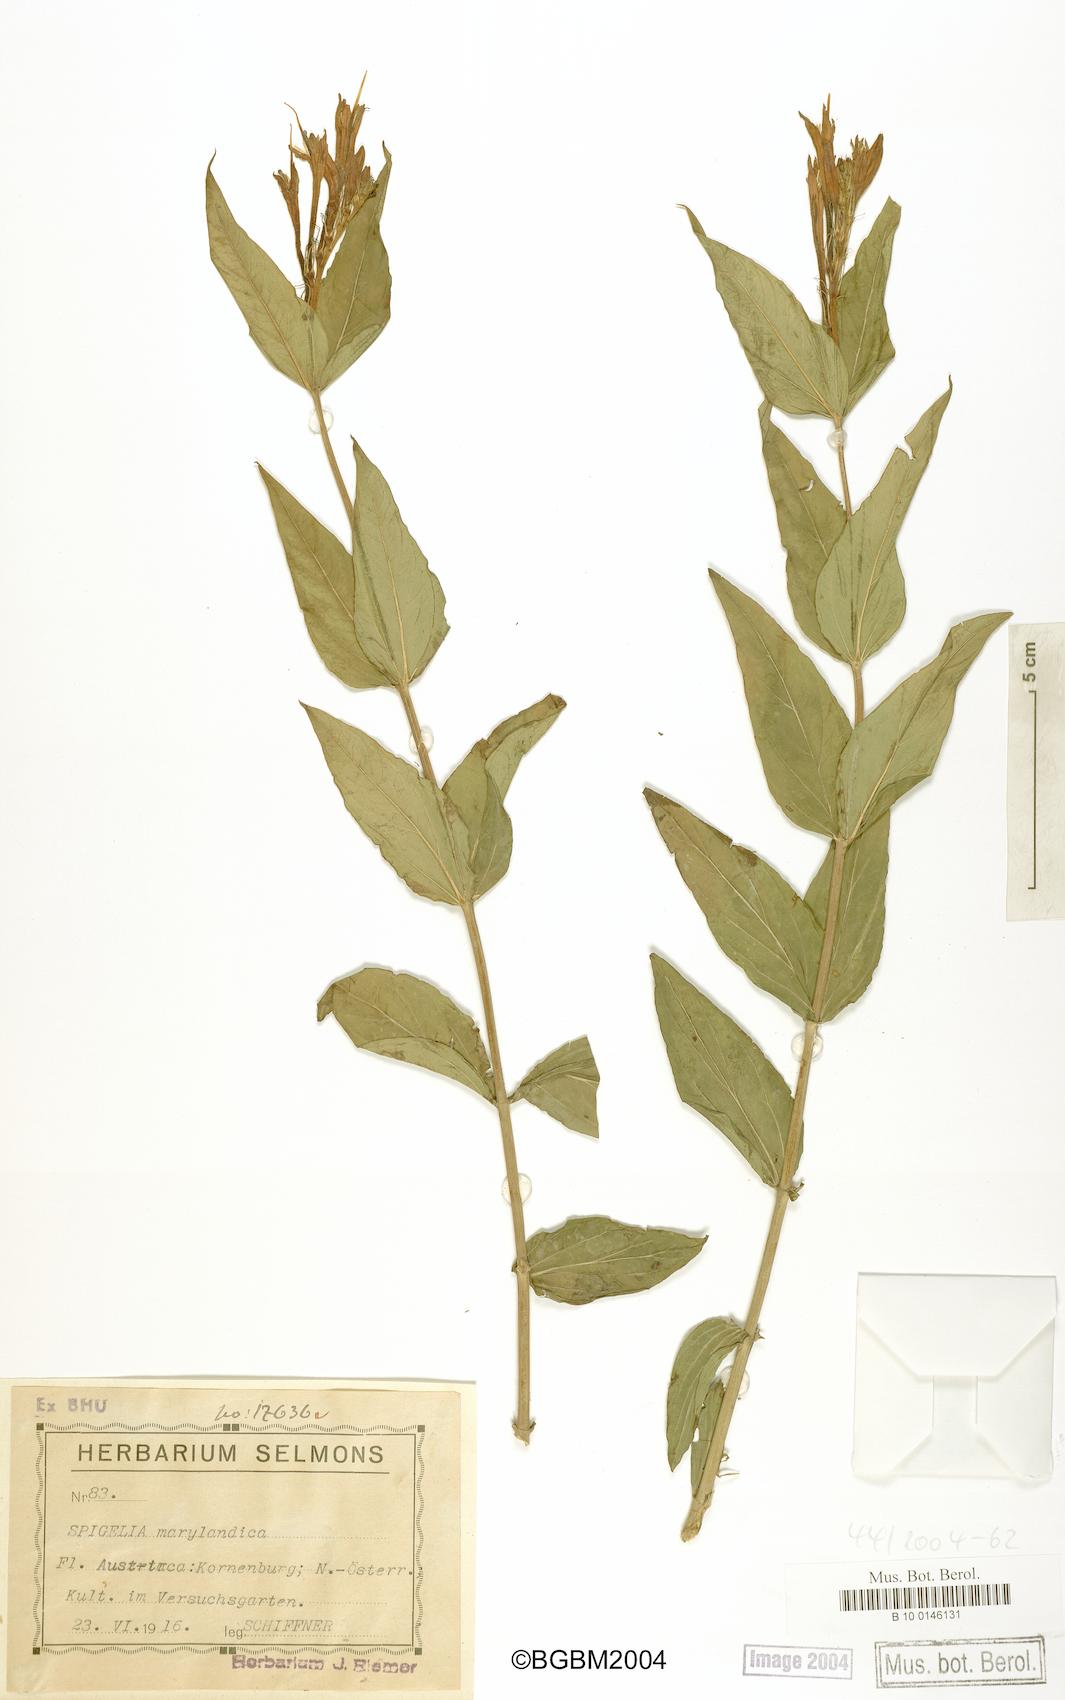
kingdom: Plantae
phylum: Tracheophyta
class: Magnoliopsida
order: Gentianales
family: Loganiaceae
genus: Spigelia
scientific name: Spigelia marilandica
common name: Indian-pink
